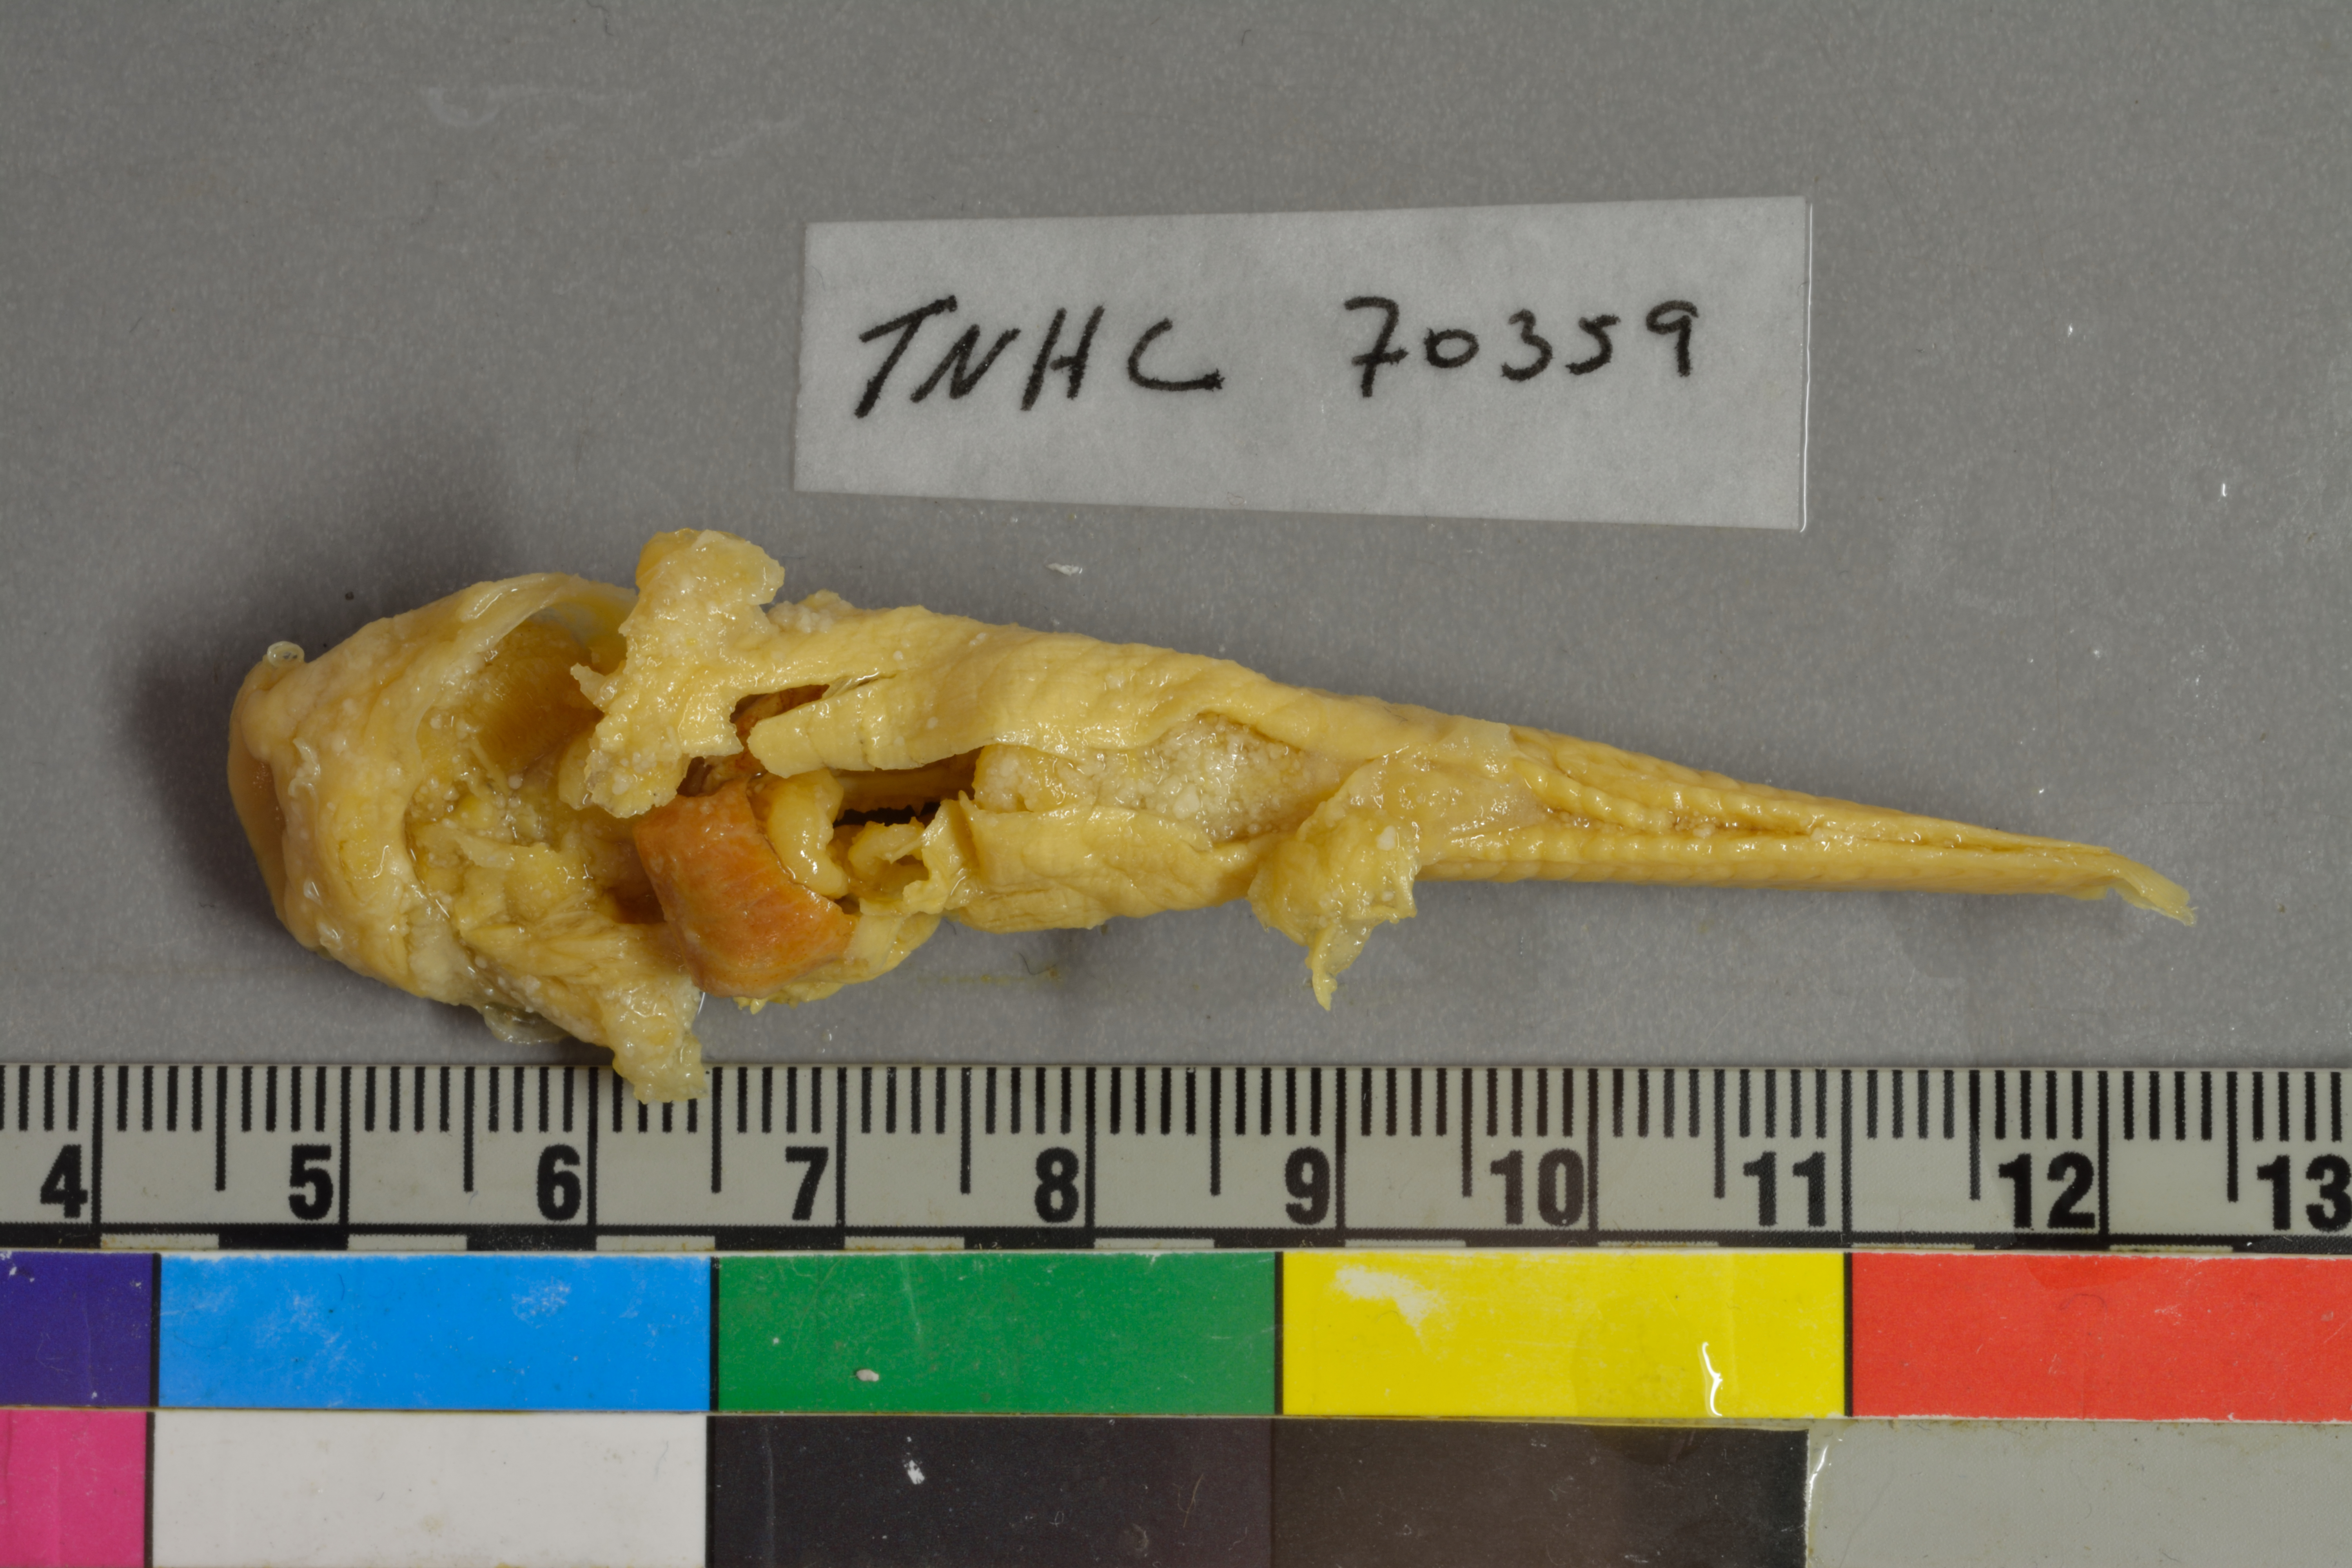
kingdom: Animalia
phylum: Chordata
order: Siluriformes
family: Ictaluridae
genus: Trogloglanis
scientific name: Trogloglanis pattersoni
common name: Toothless blindcat
